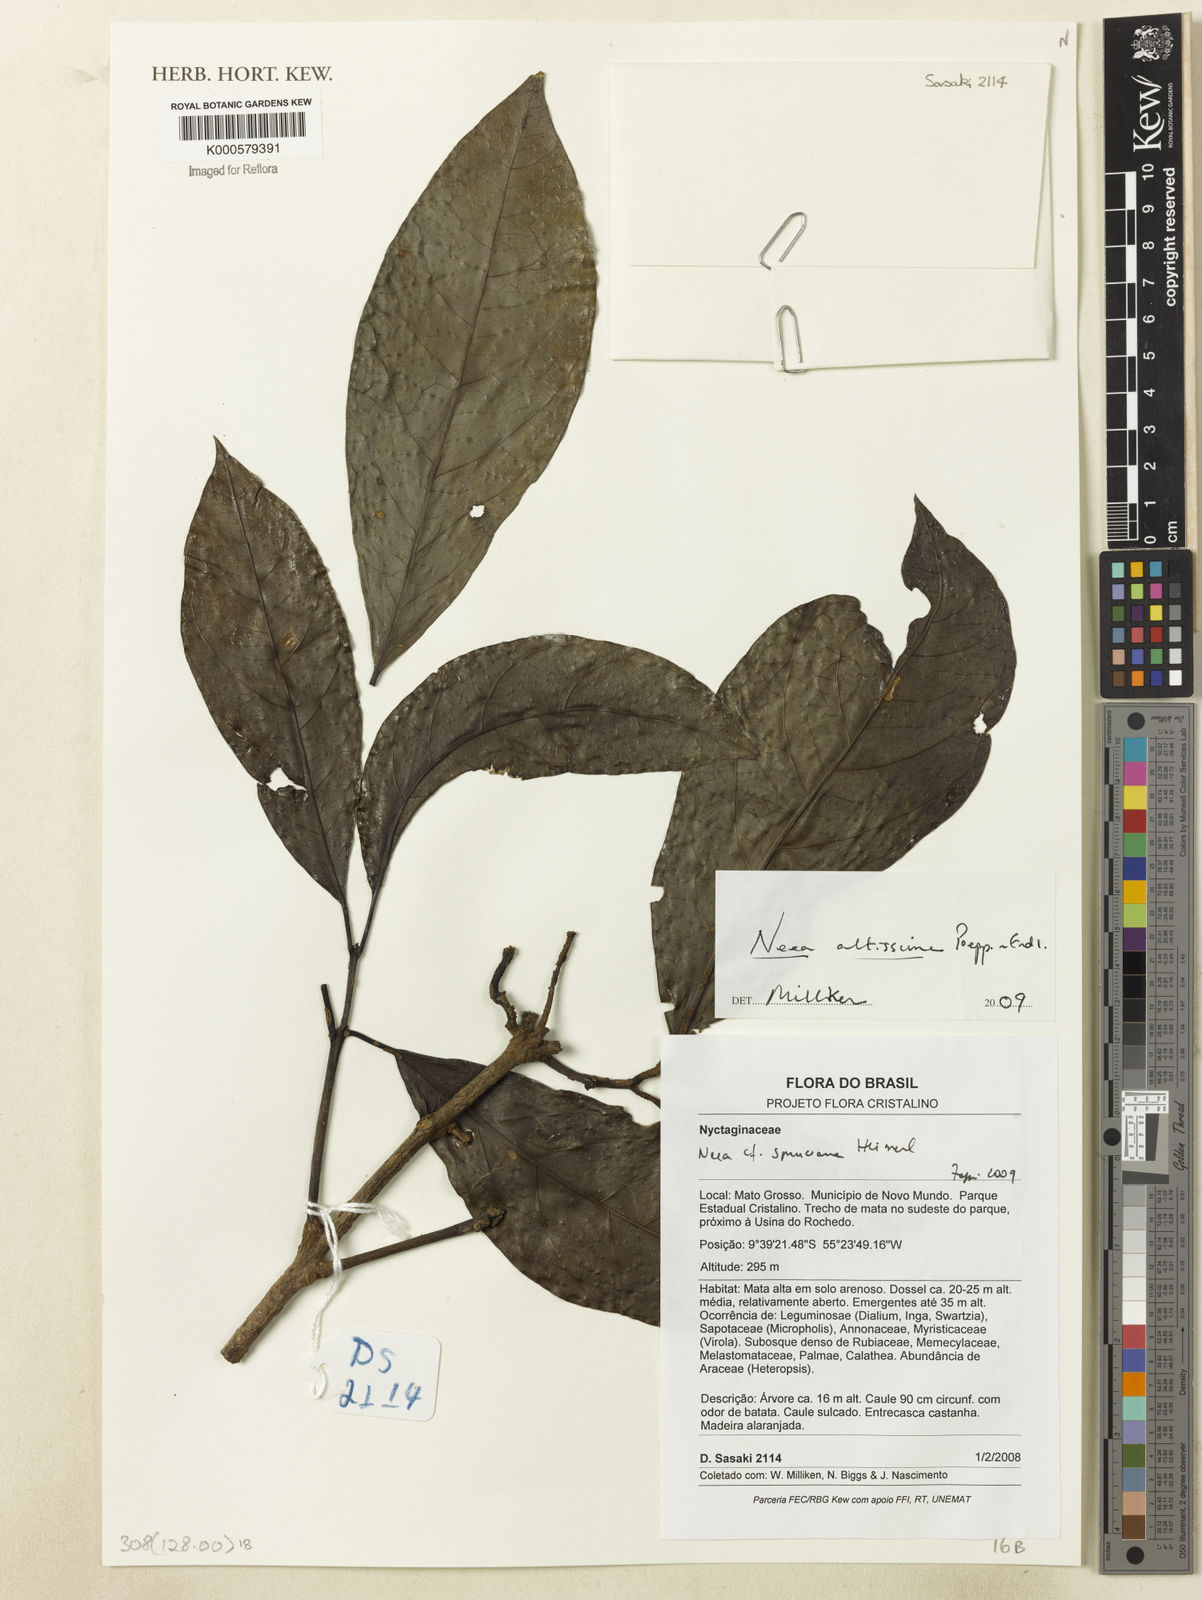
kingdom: Plantae
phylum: Tracheophyta
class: Magnoliopsida
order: Caryophyllales
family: Nyctaginaceae
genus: Neea
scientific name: Neea altissima
